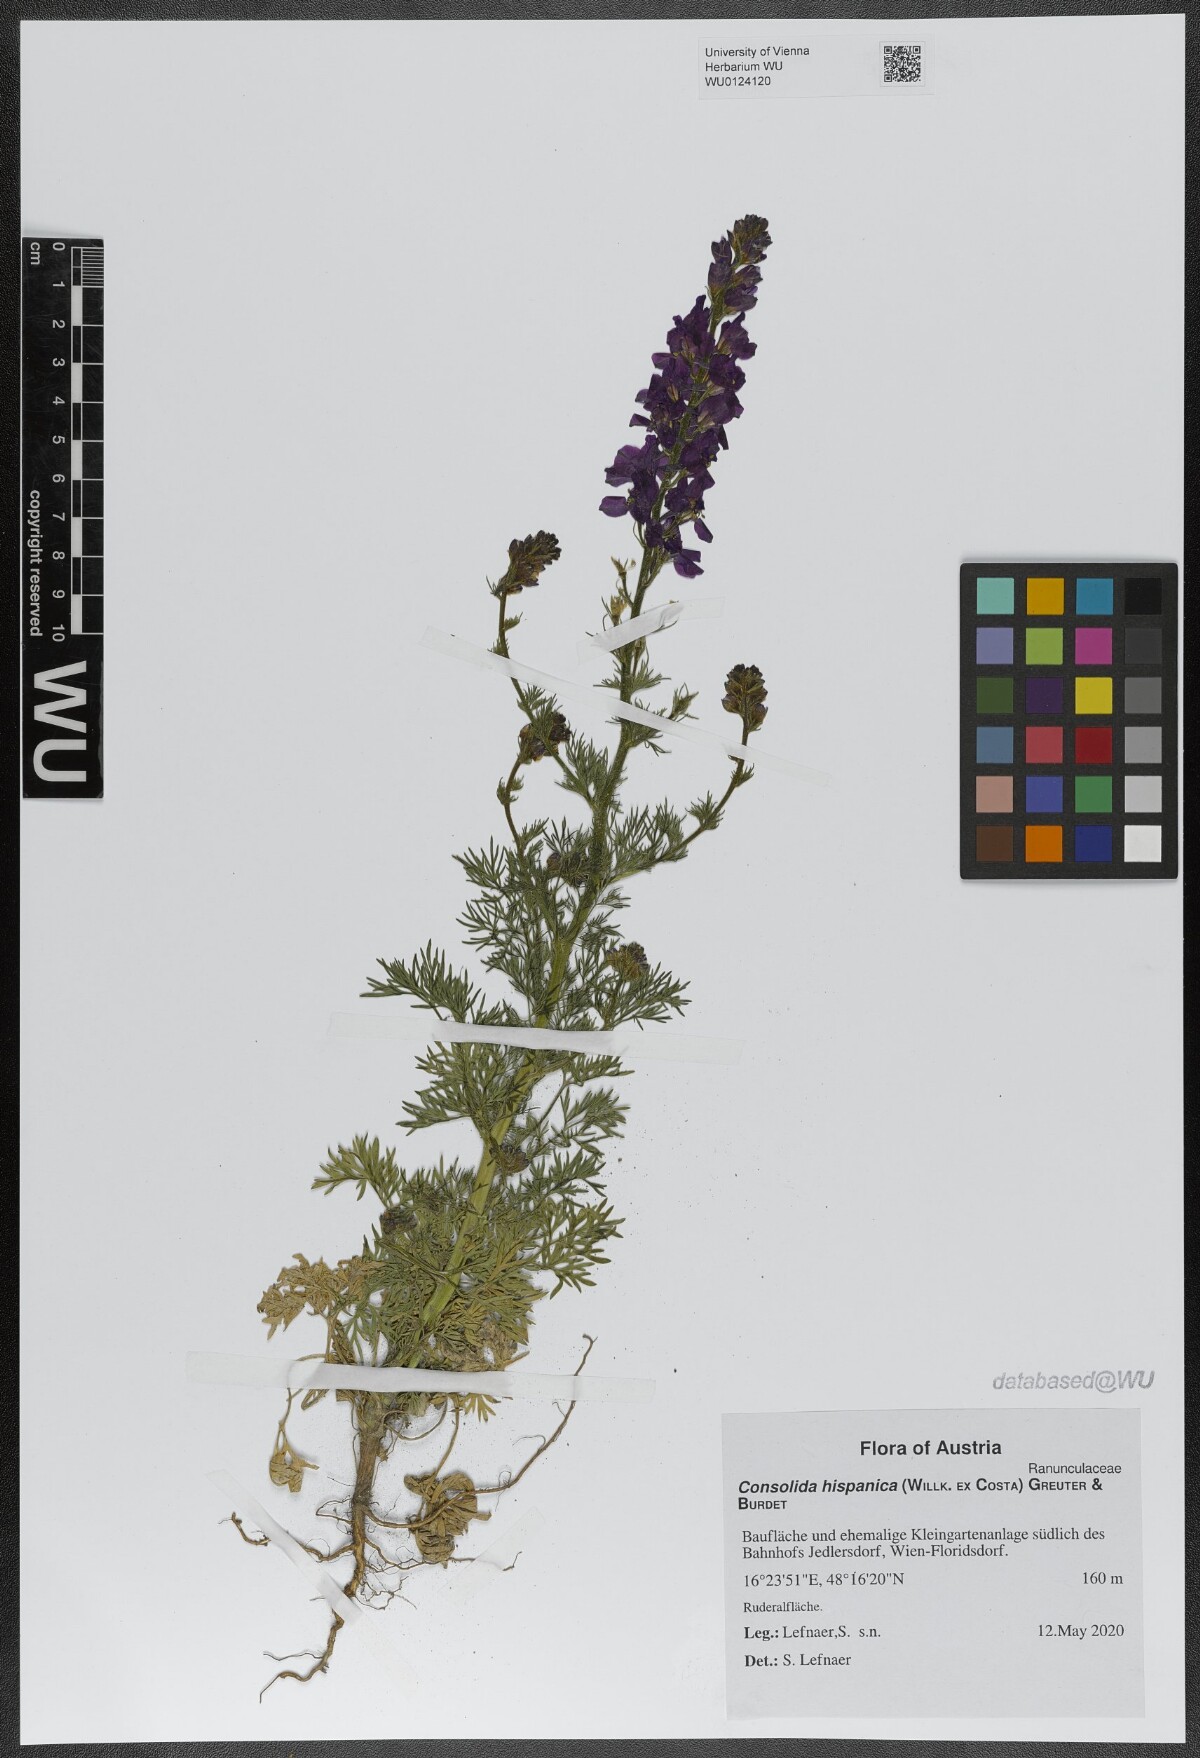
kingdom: Plantae
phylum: Tracheophyta
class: Magnoliopsida
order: Ranunculales
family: Ranunculaceae
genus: Delphinium
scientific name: Delphinium hispanicum
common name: Oriental knight's-spur
